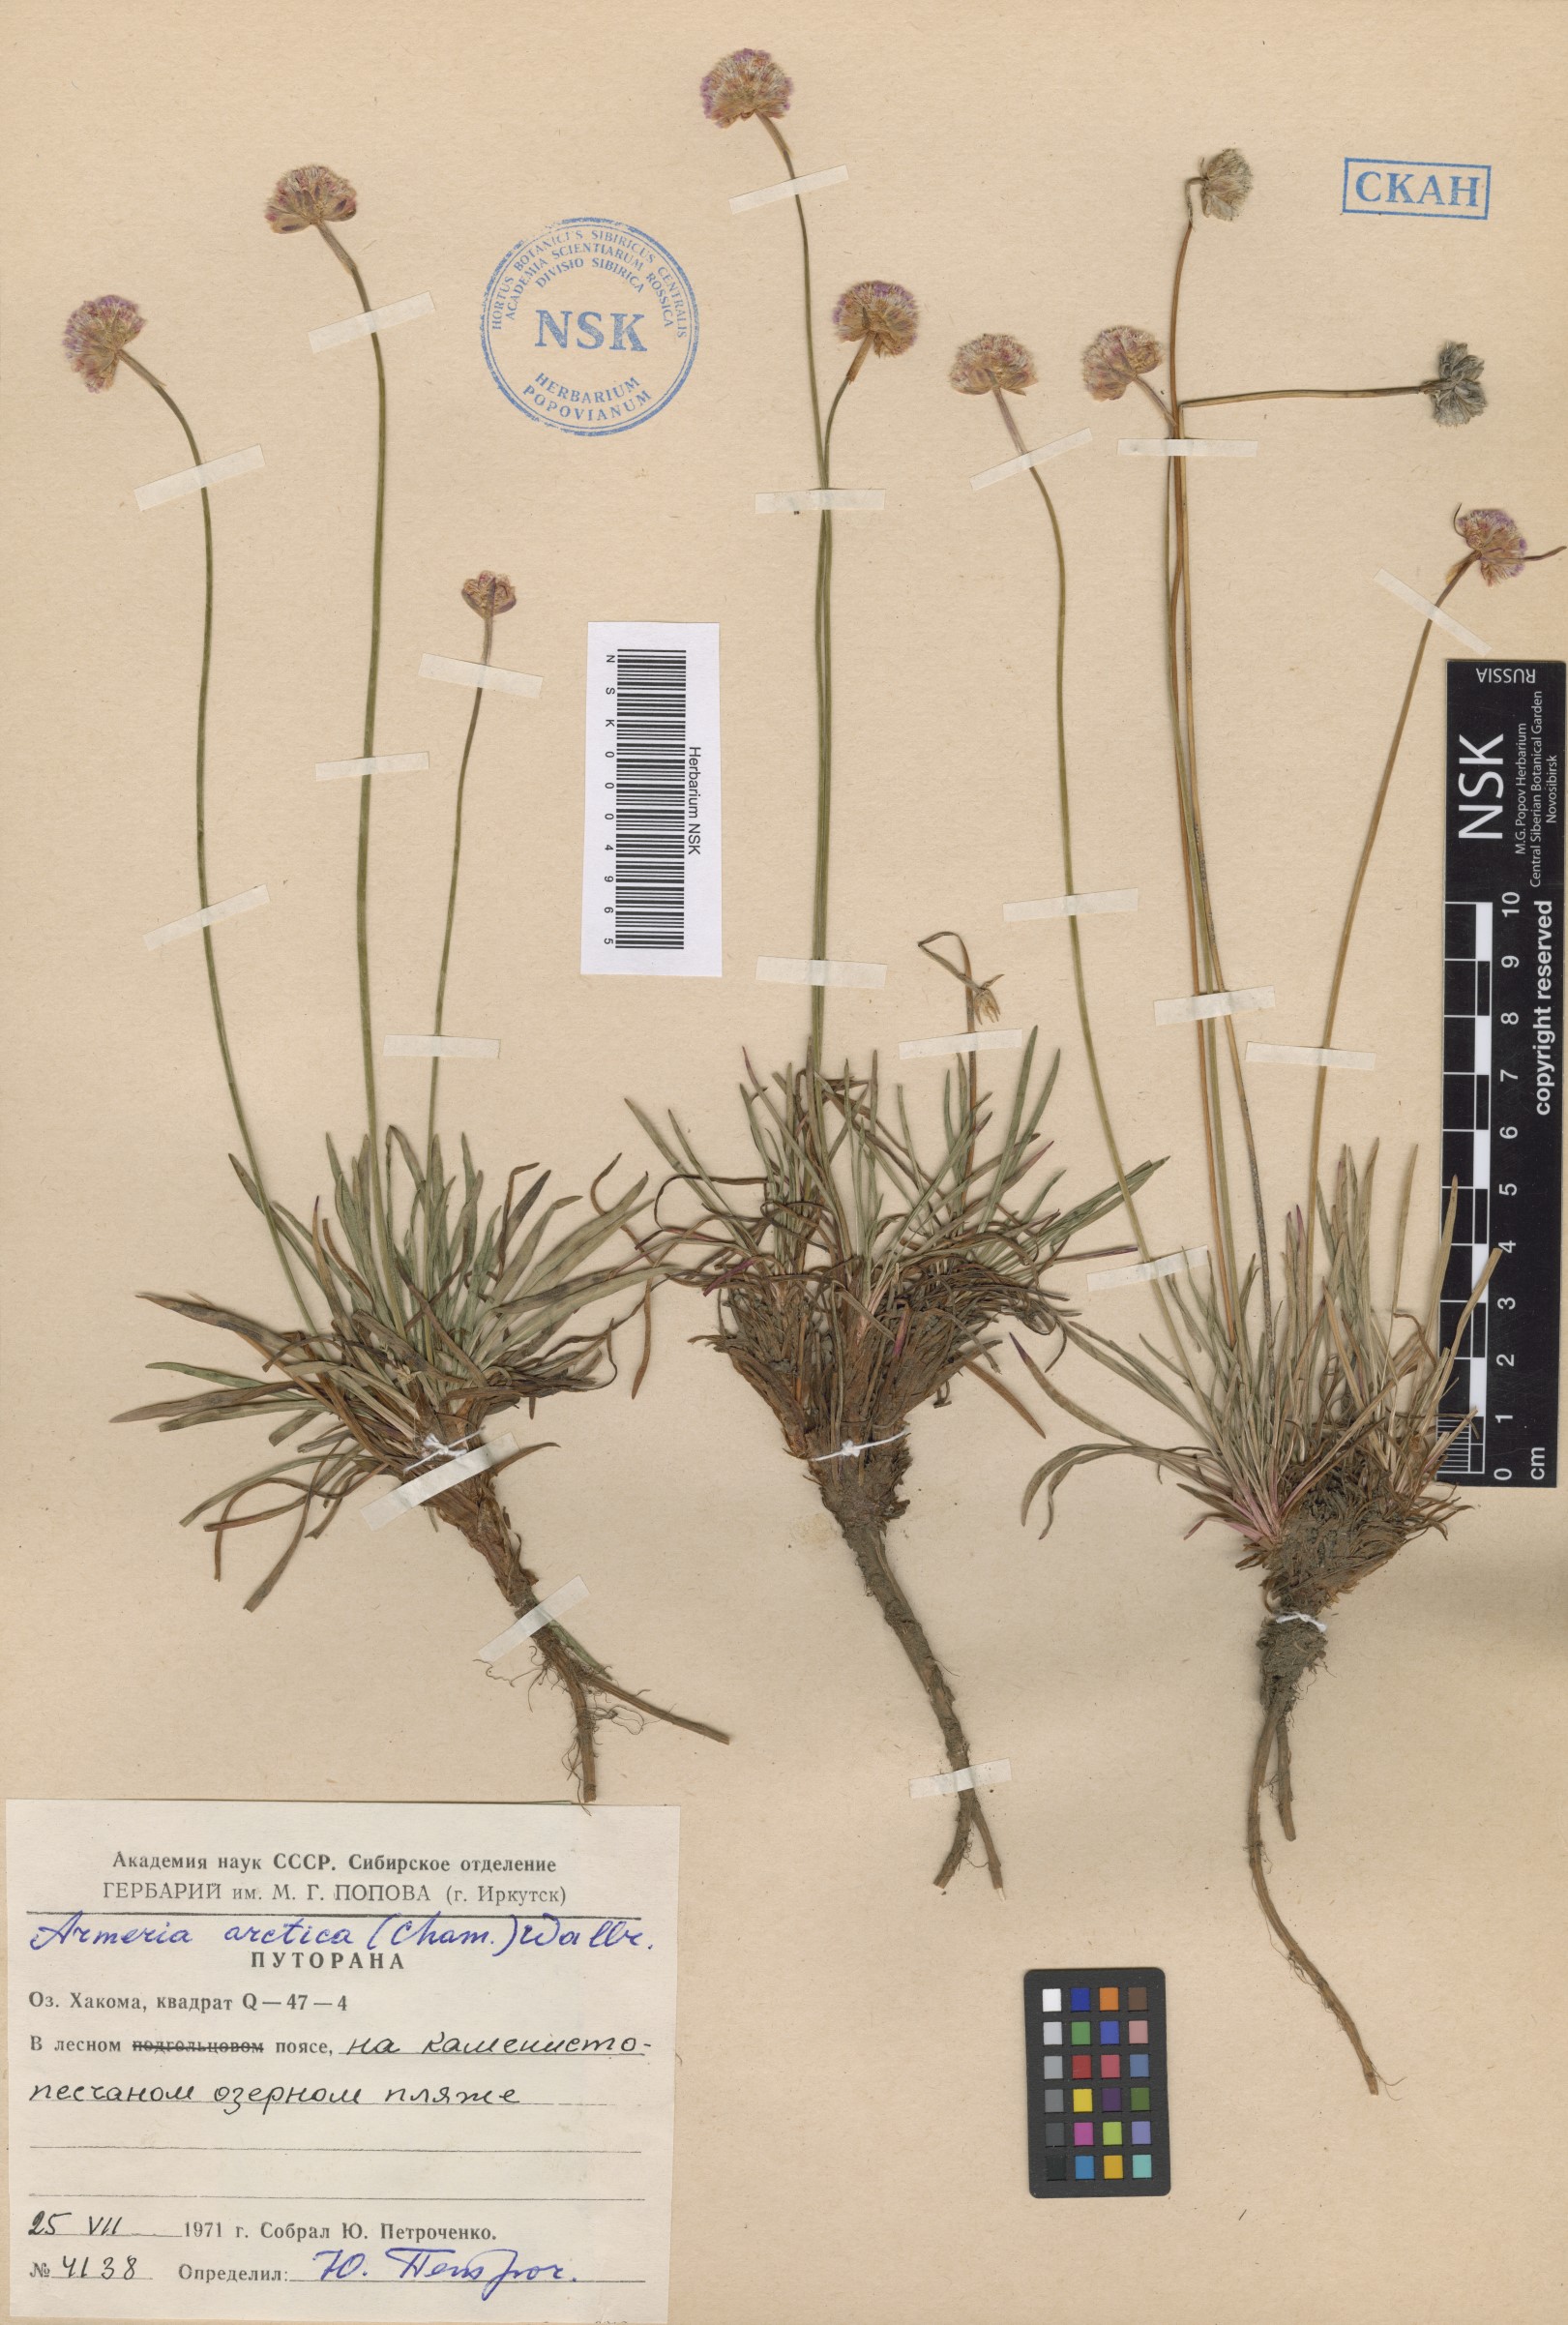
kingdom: Plantae
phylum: Tracheophyta
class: Magnoliopsida
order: Caryophyllales
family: Plumbaginaceae
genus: Armeria
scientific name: Armeria maritima
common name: Thrift
